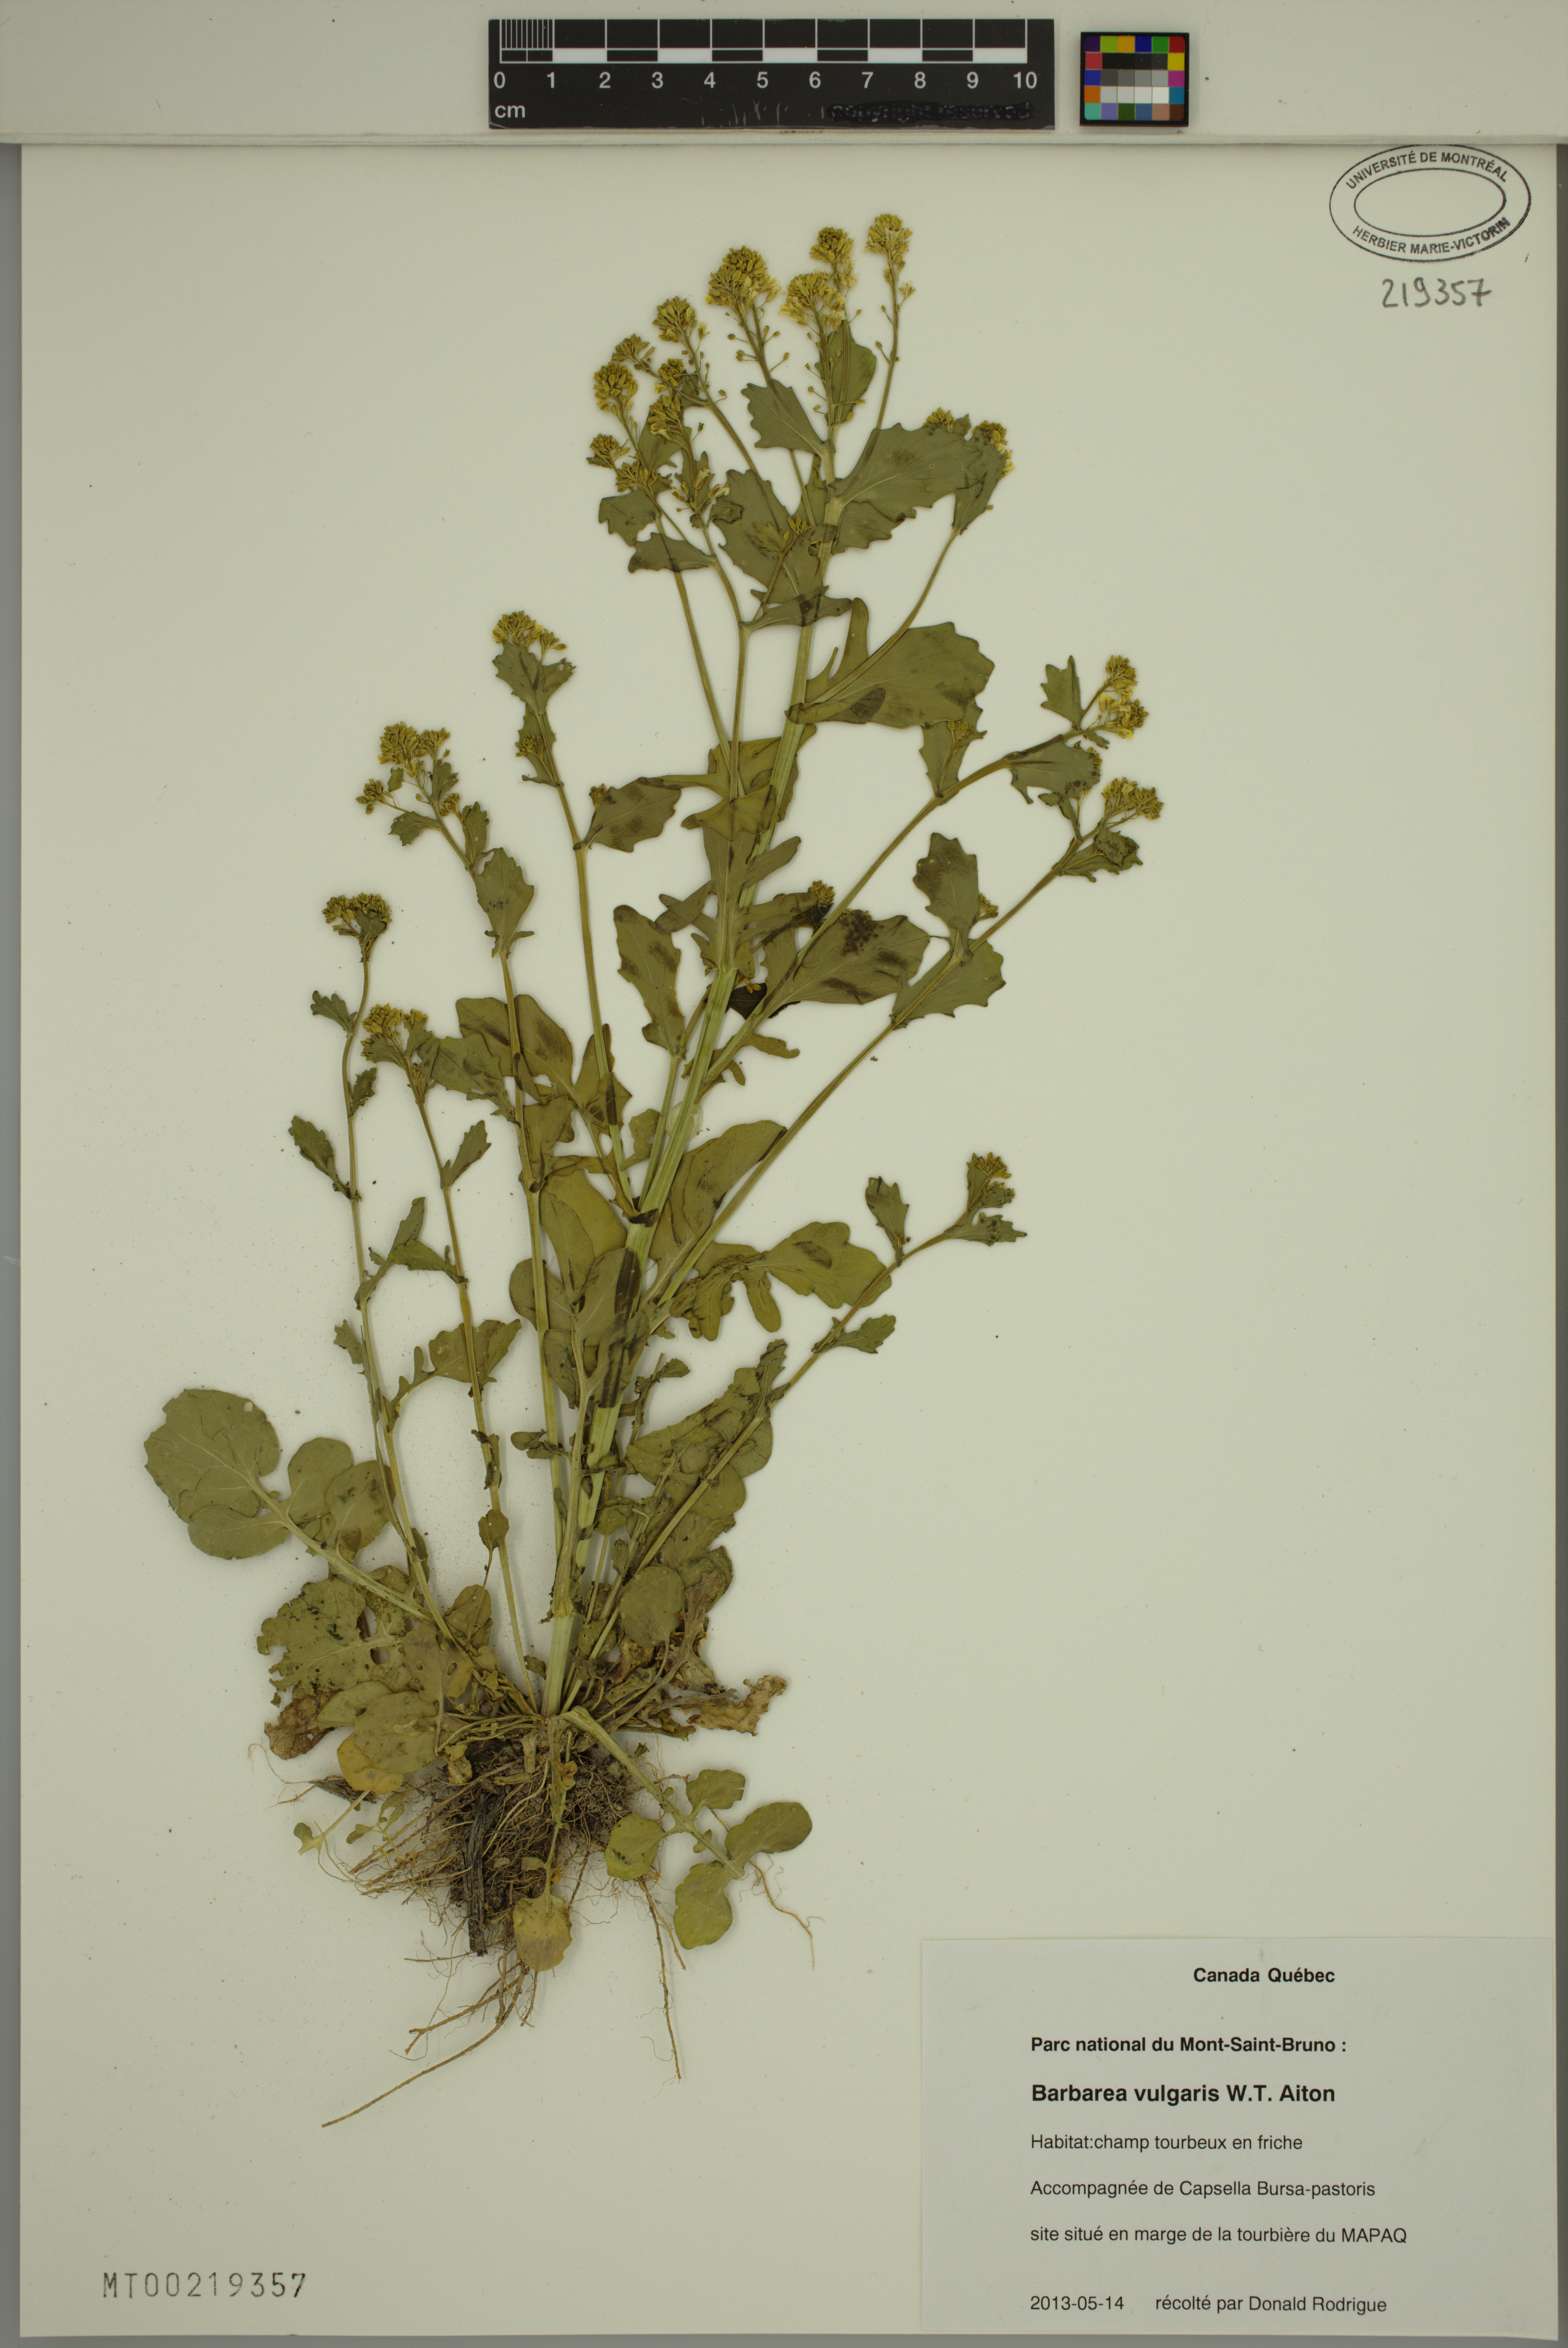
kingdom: Plantae
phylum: Tracheophyta
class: Magnoliopsida
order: Brassicales
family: Brassicaceae
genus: Barbarea
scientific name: Barbarea vulgaris
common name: Cressy-greens
